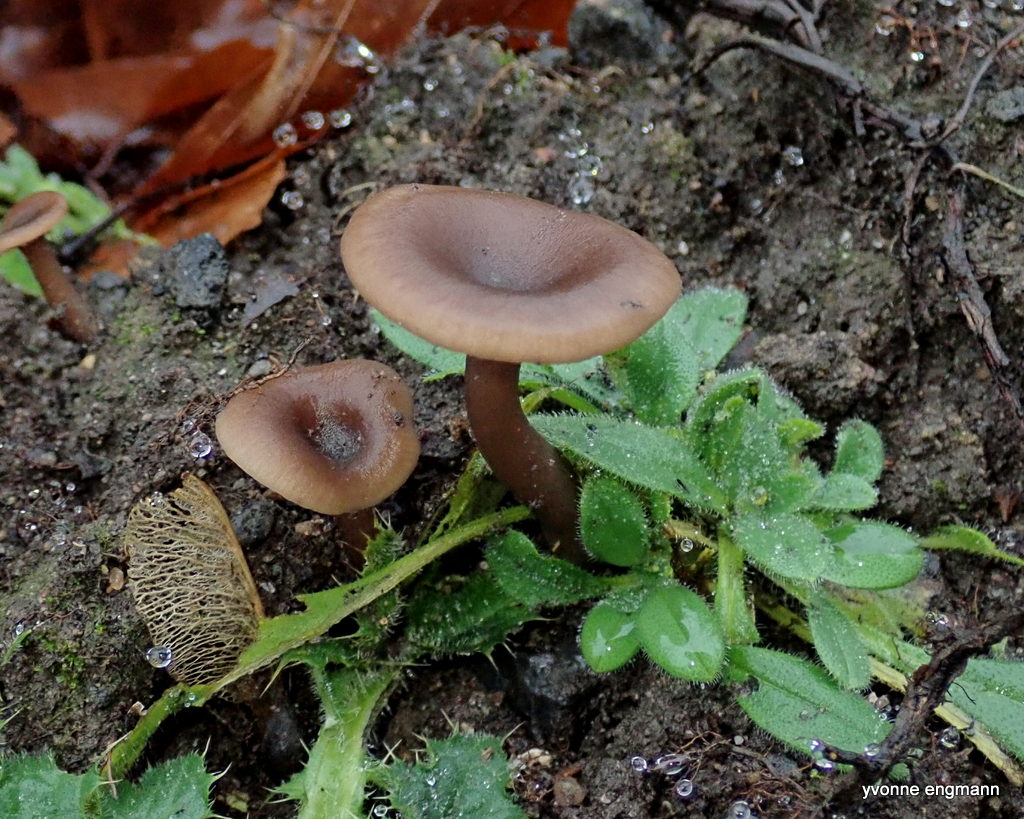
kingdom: Fungi
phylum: Basidiomycota
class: Agaricomycetes
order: Agaricales
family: Pseudoclitocybaceae
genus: Pseudoclitocybe
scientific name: Pseudoclitocybe cyathiformis
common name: almindelig bægertragthat
